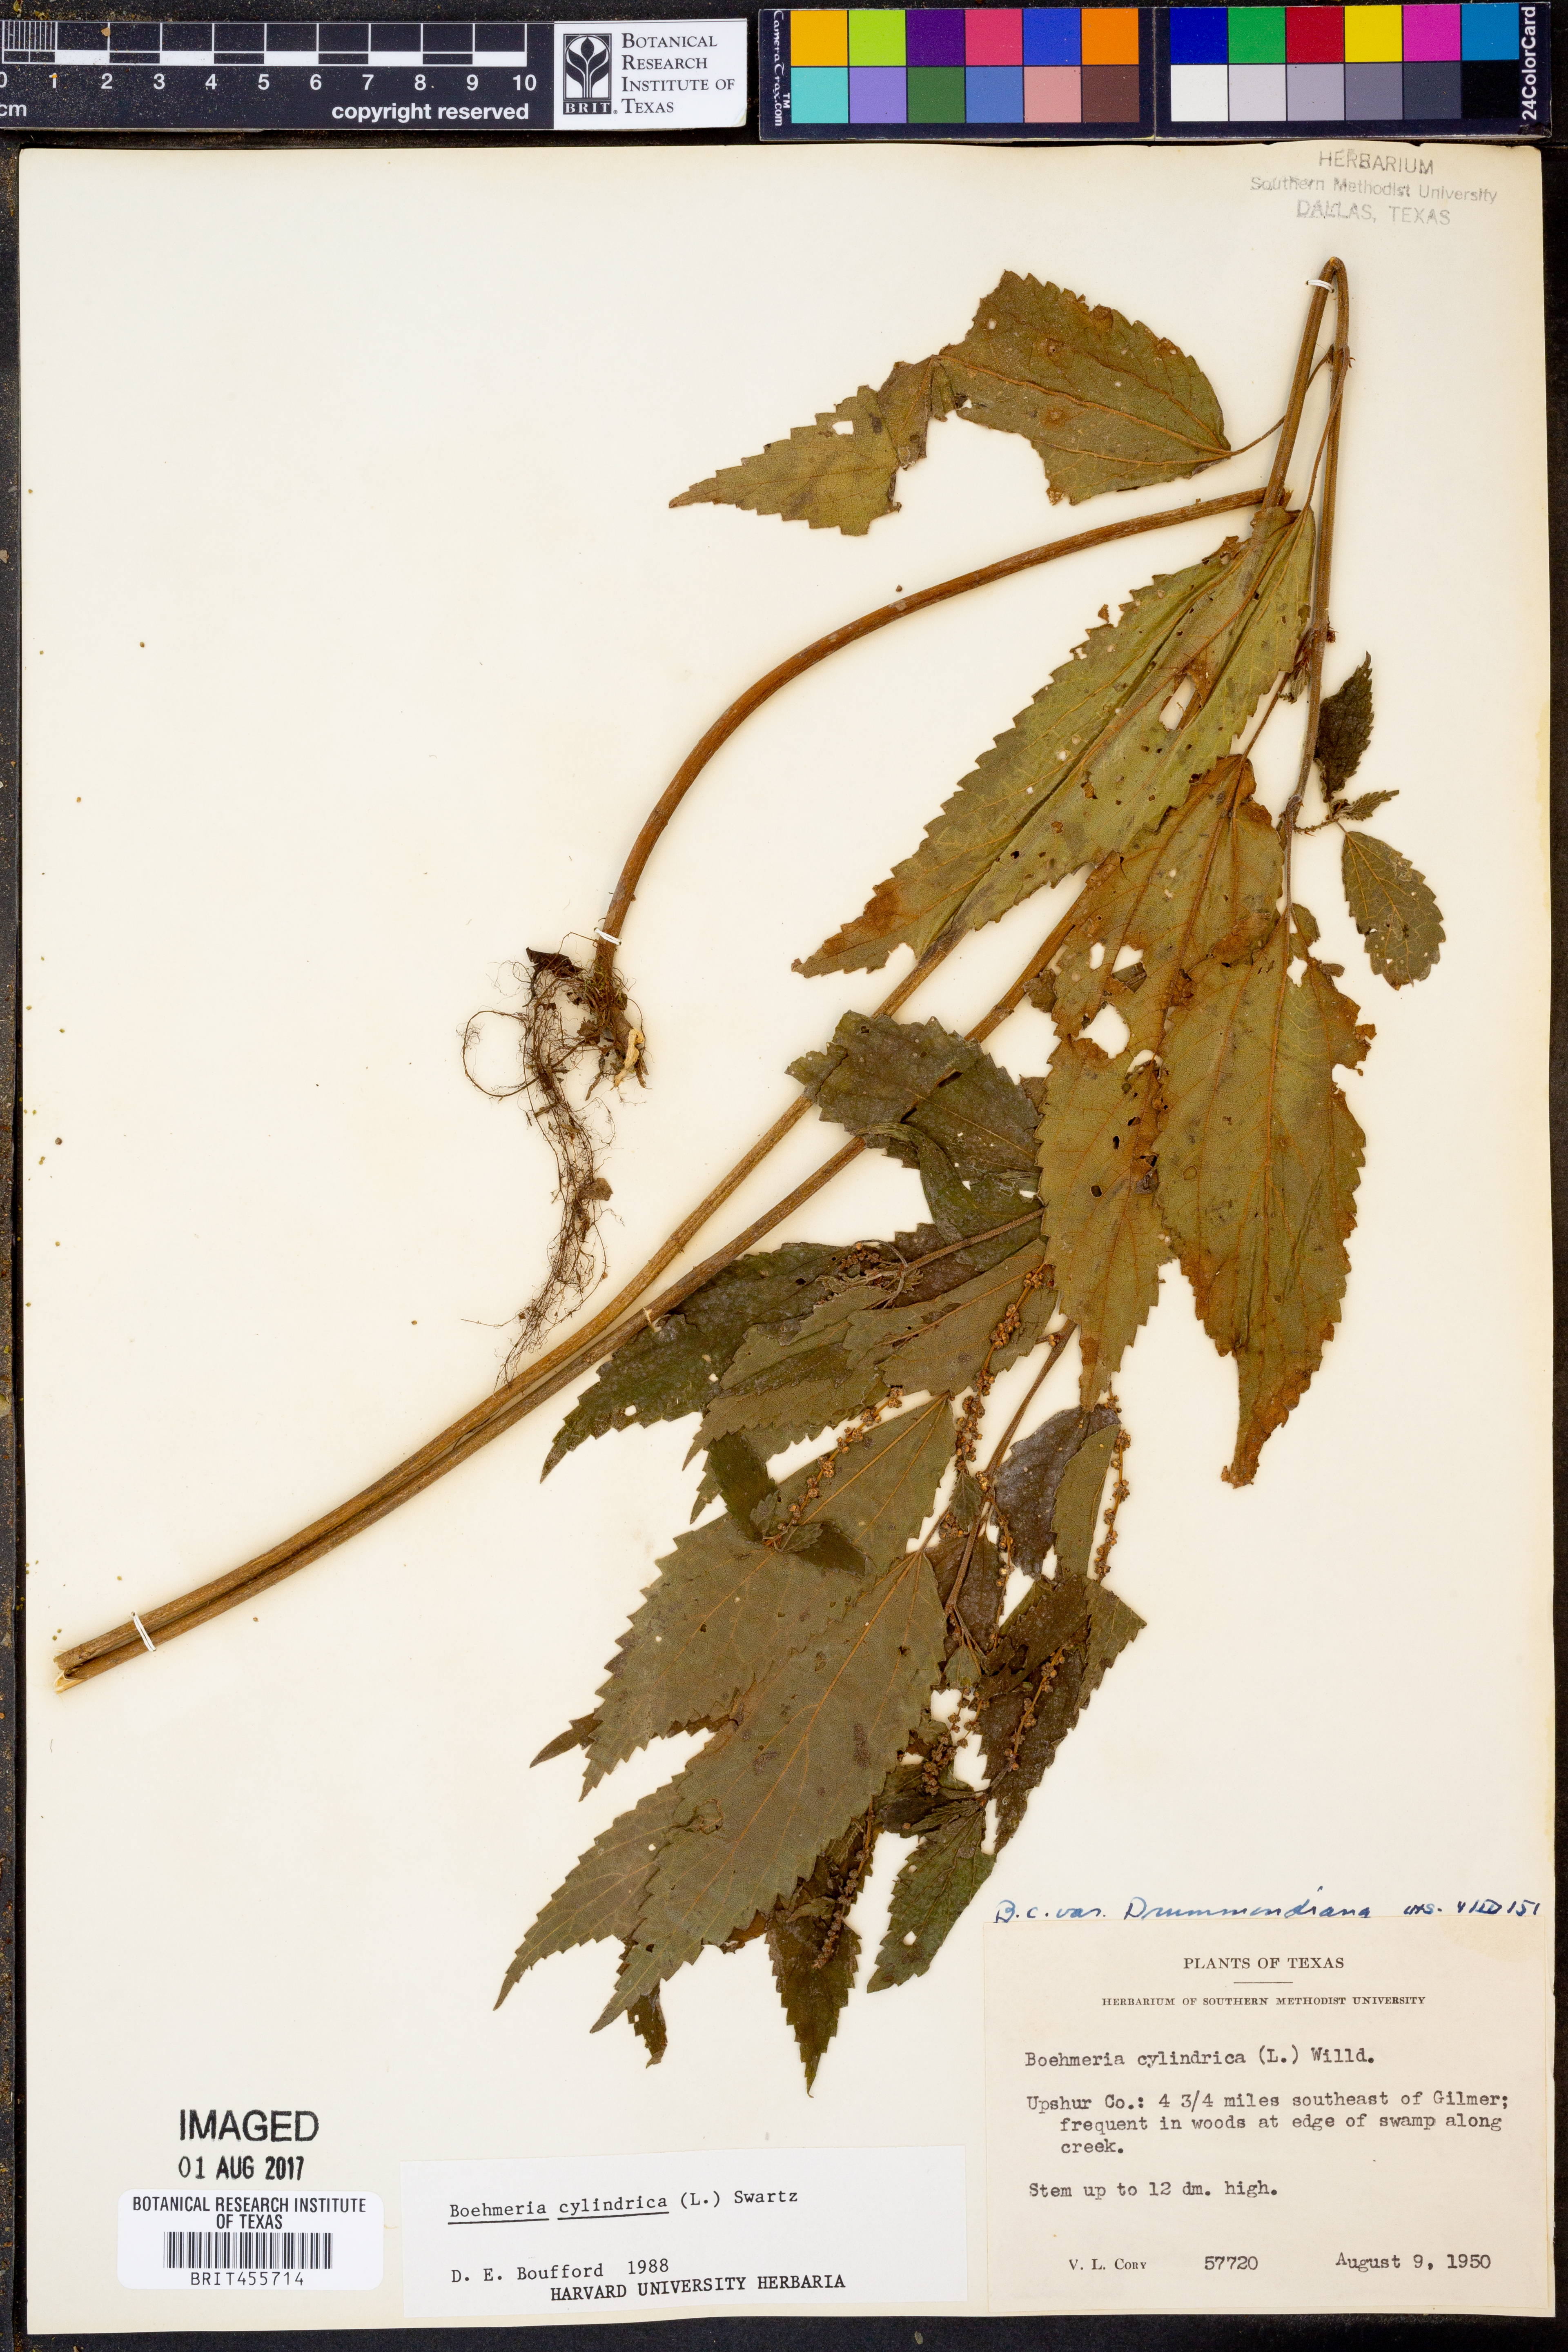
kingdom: Plantae
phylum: Tracheophyta
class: Magnoliopsida
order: Rosales
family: Urticaceae
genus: Boehmeria
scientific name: Boehmeria cylindrica
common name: Bog-hemp
